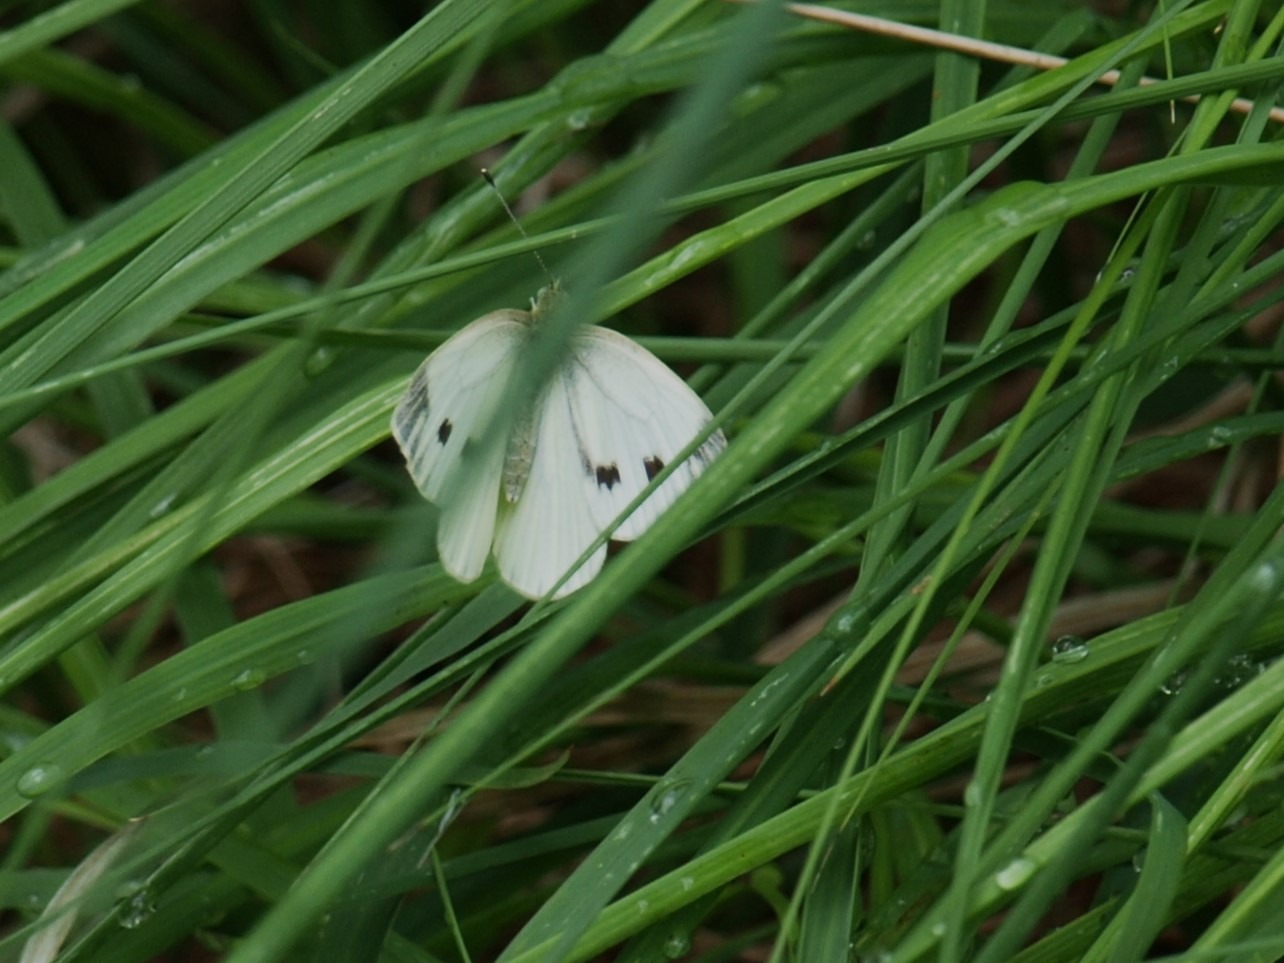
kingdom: Animalia
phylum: Arthropoda
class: Insecta
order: Lepidoptera
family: Pieridae
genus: Pieris
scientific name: Pieris napi
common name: Grønåret kålsommerfugl
